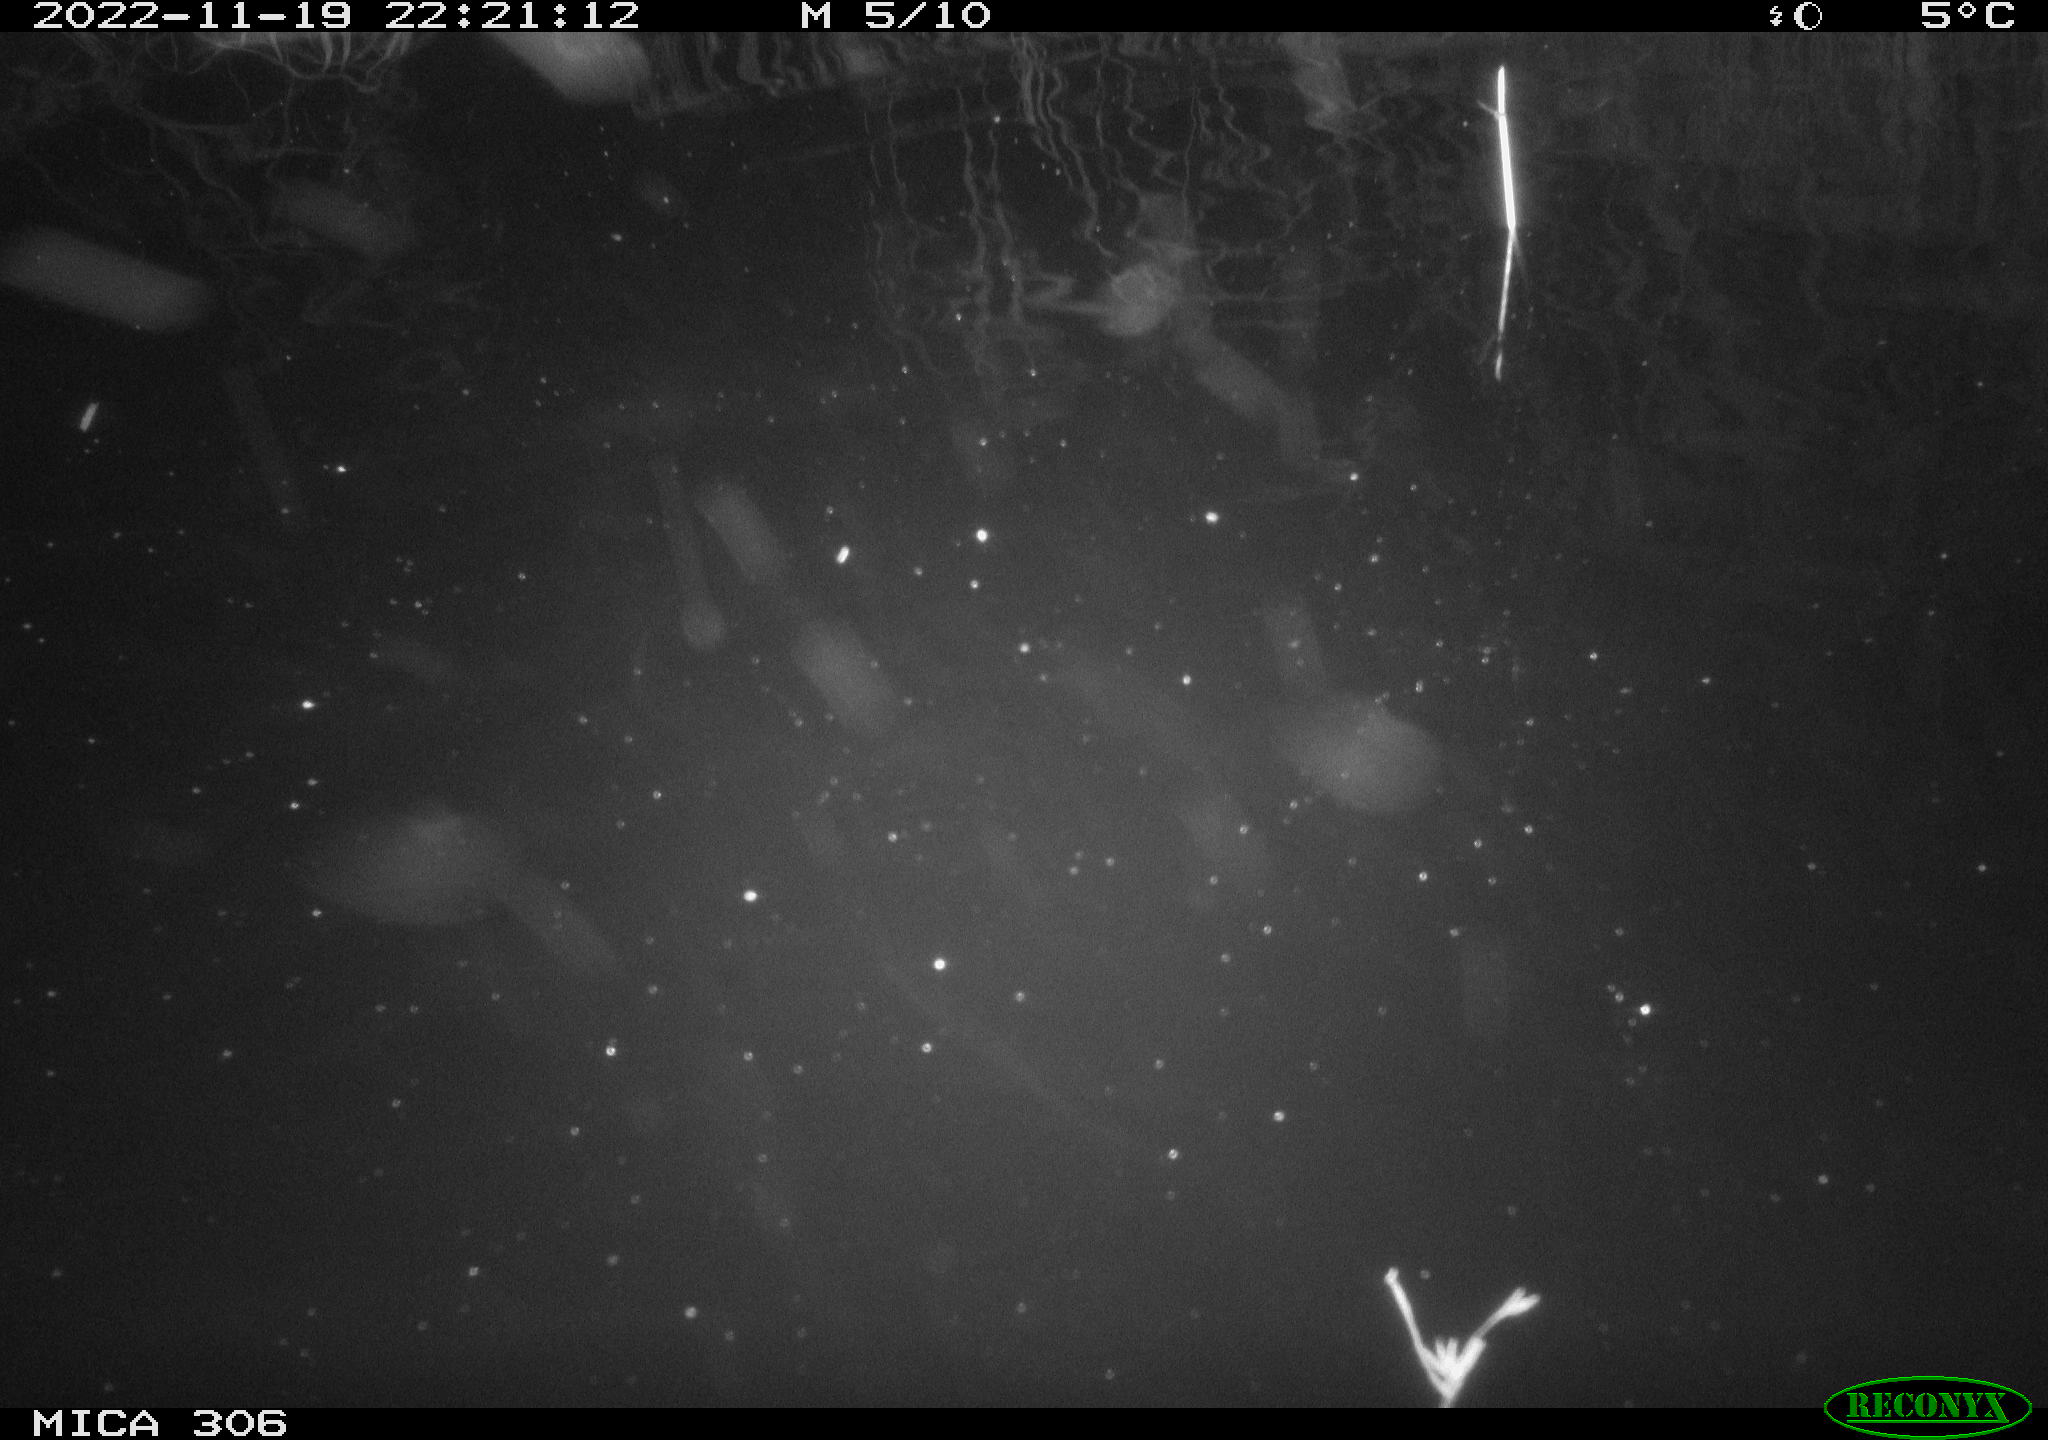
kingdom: Animalia
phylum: Chordata
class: Mammalia
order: Rodentia
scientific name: Rodentia
